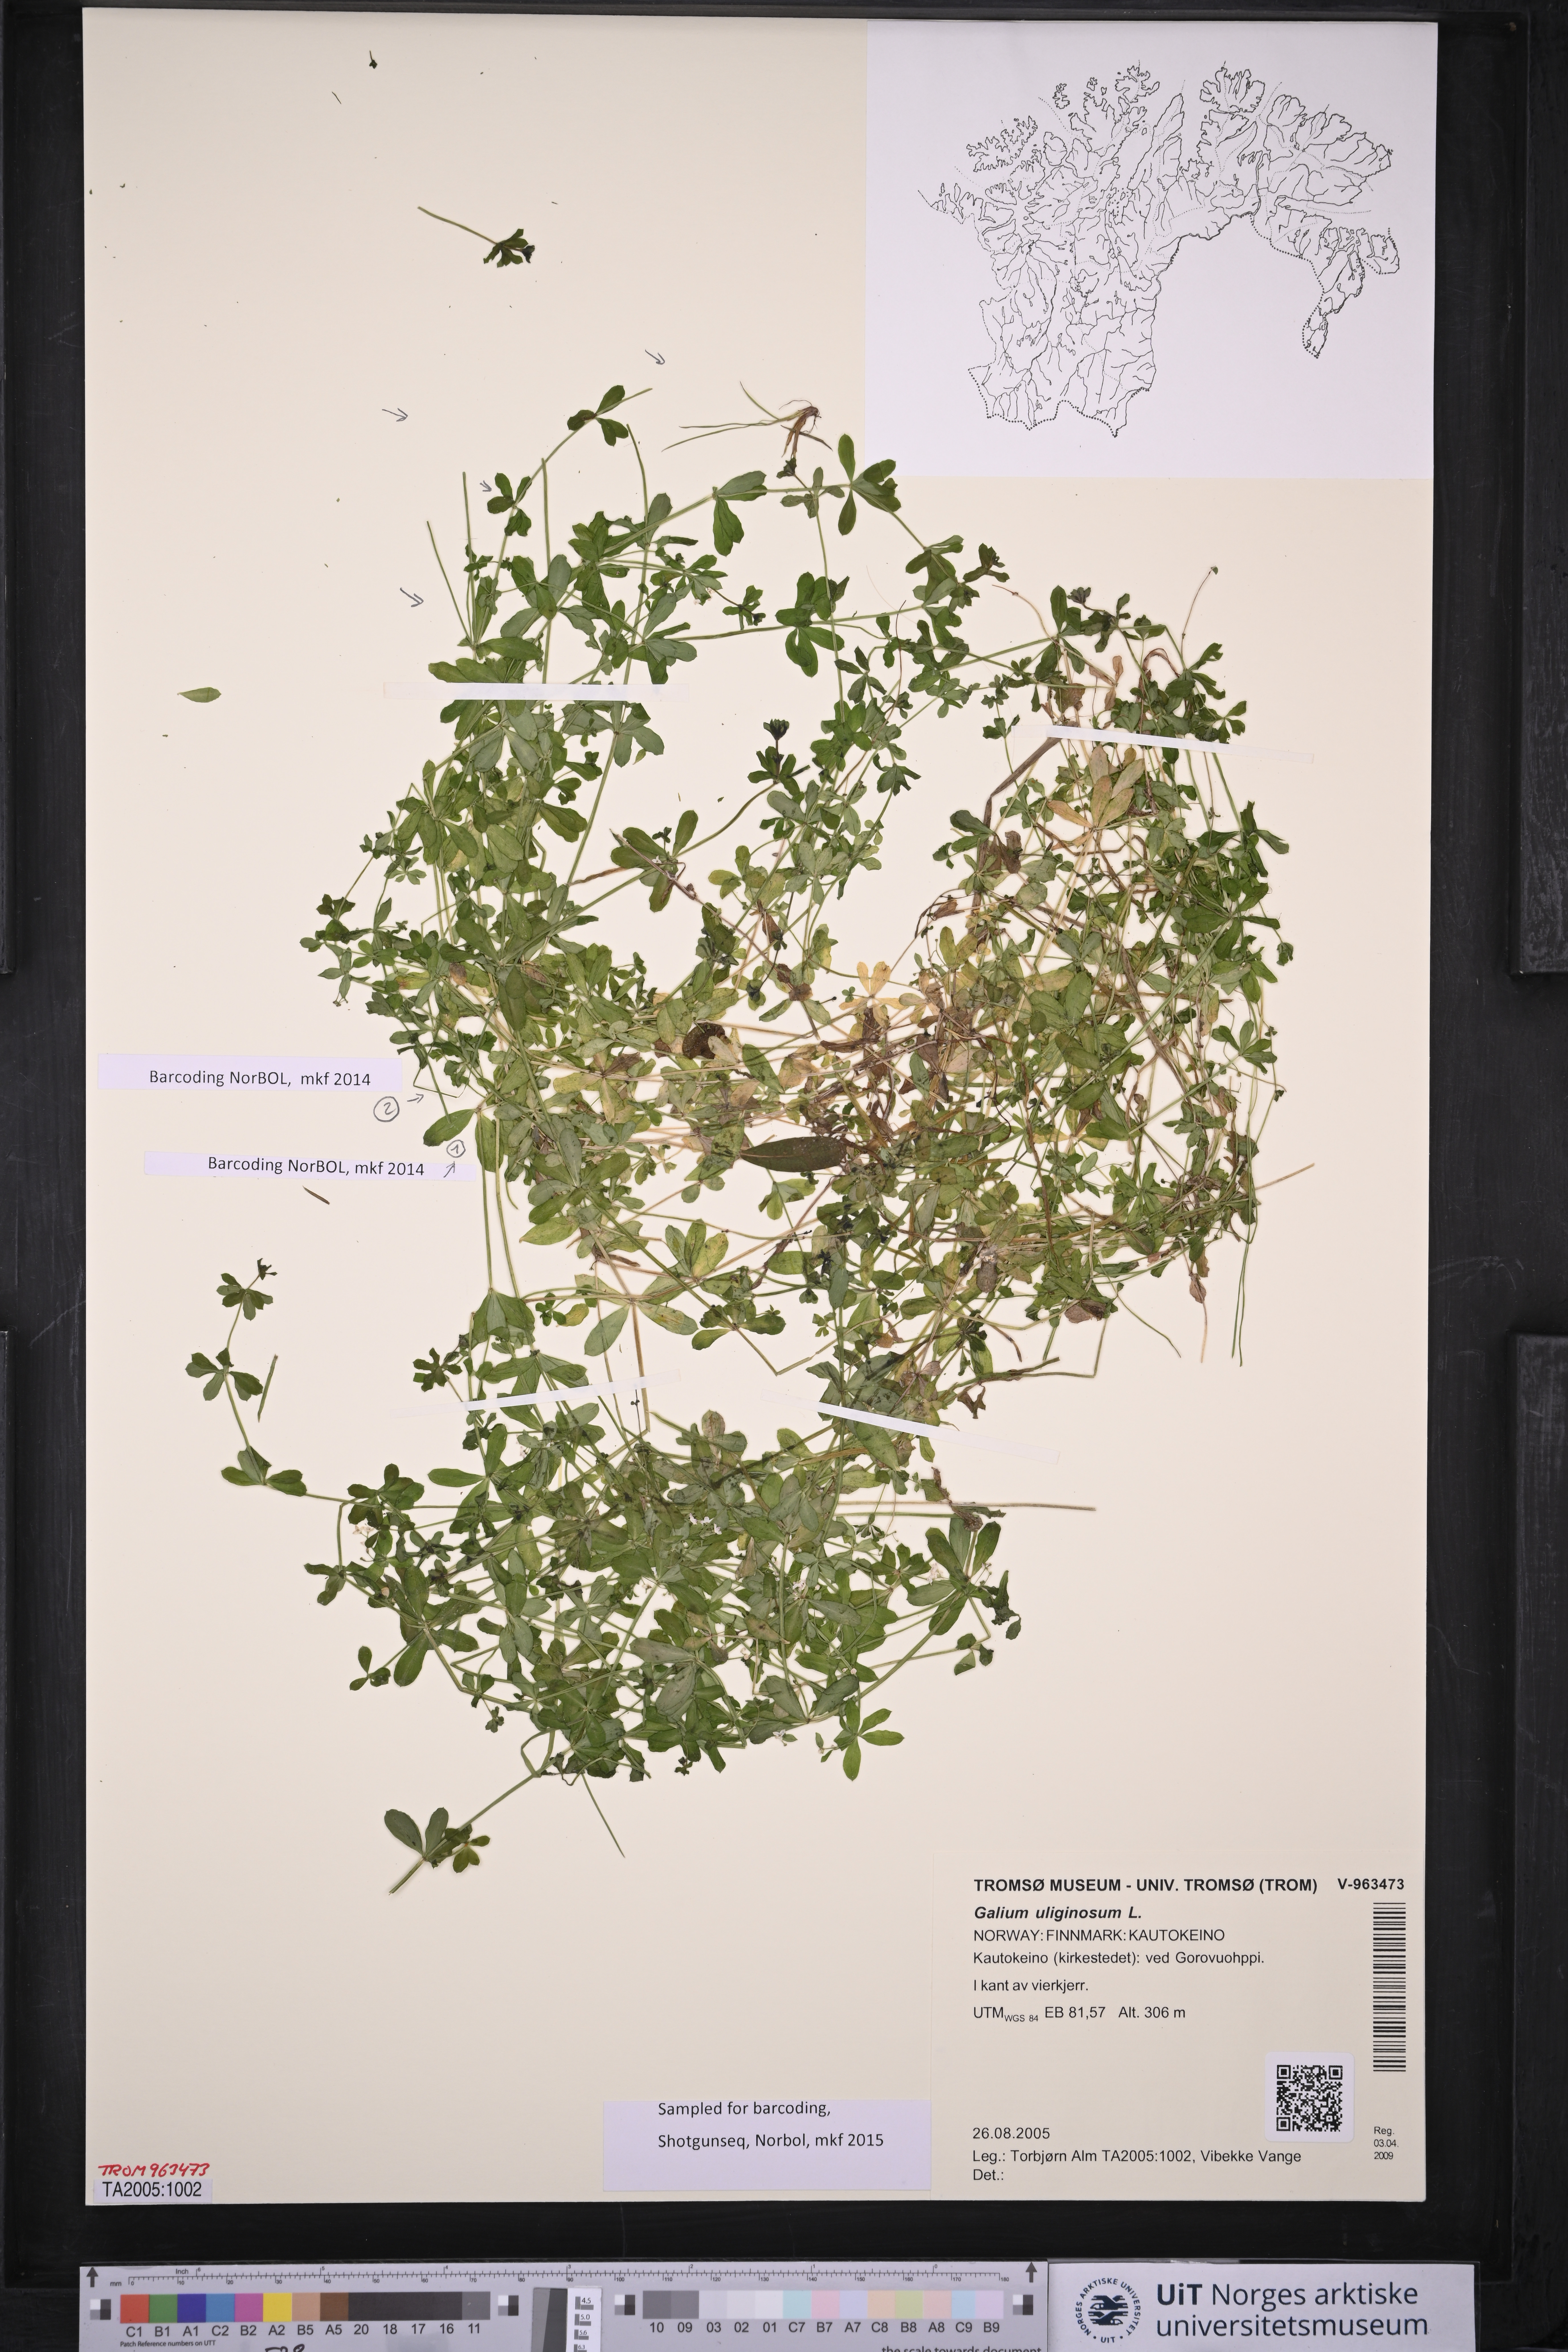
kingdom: Plantae
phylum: Tracheophyta
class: Magnoliopsida
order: Gentianales
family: Rubiaceae
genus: Galium
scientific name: Galium uliginosum
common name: Fen bedstraw
